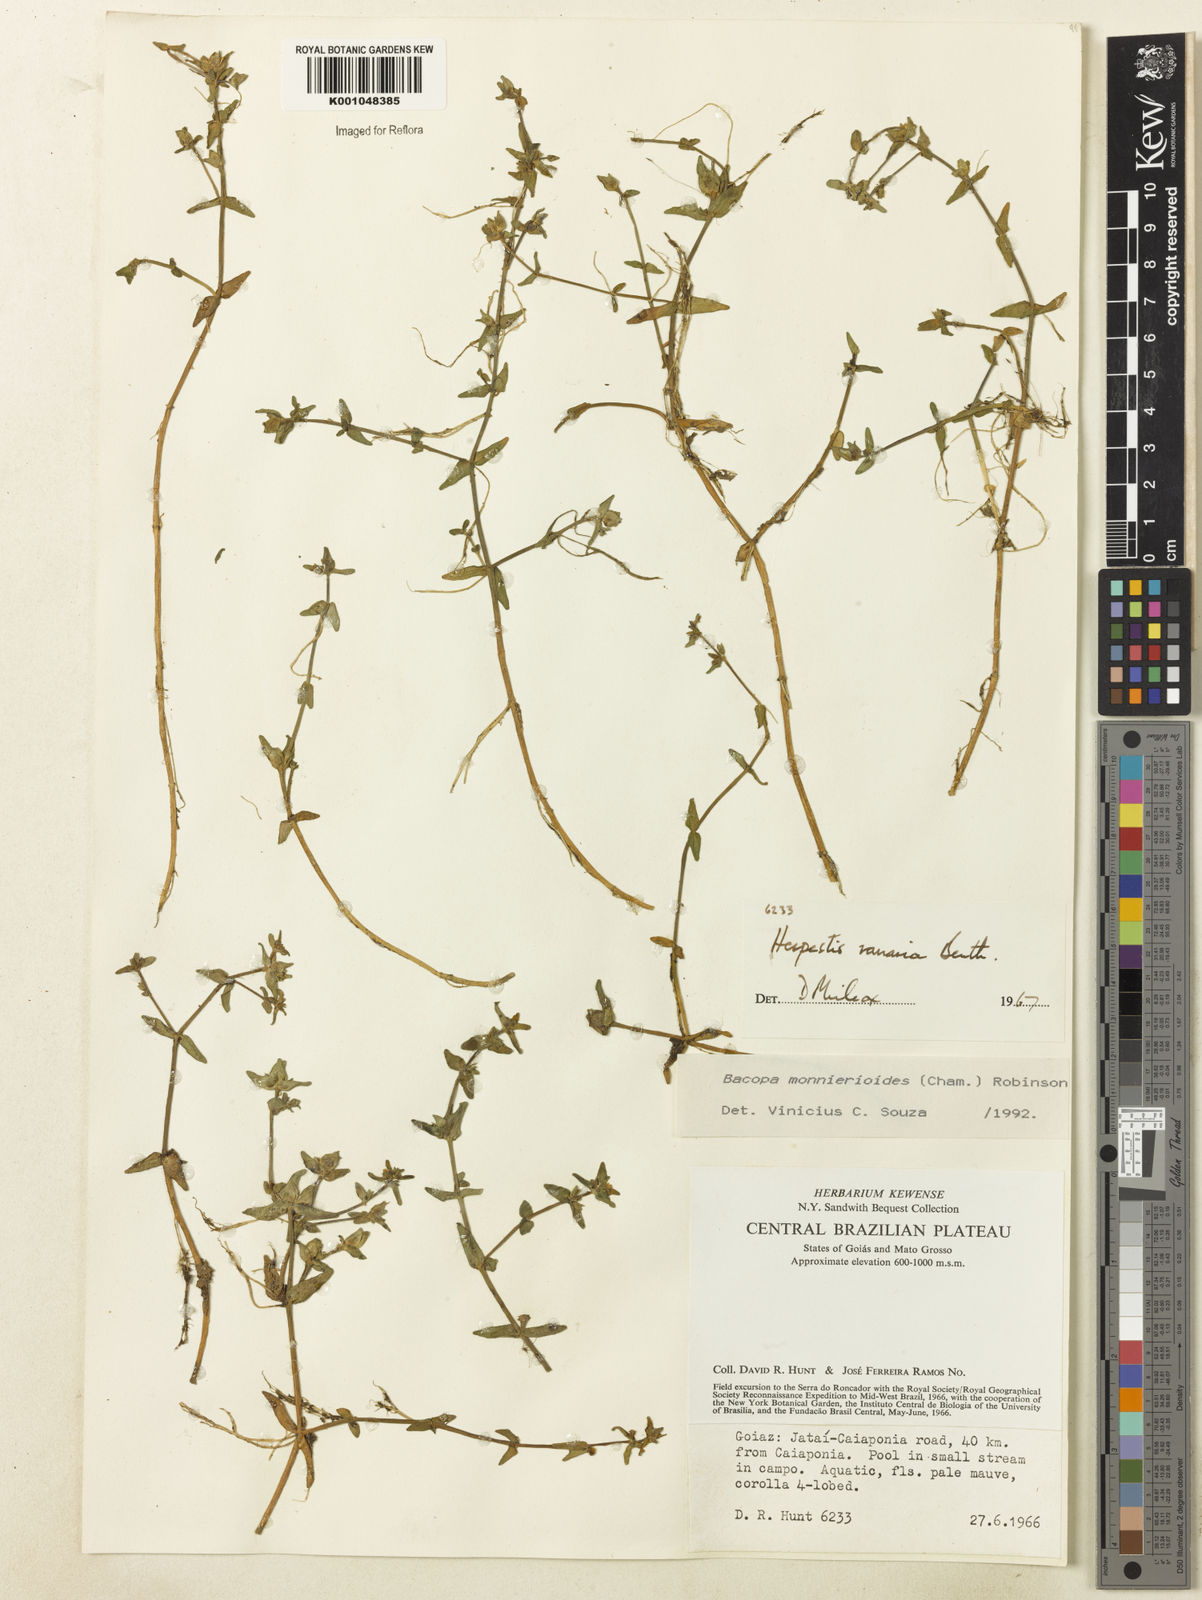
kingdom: Plantae
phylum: Tracheophyta
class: Magnoliopsida
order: Lamiales
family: Plantaginaceae
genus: Bacopa
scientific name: Bacopa monnierioides
